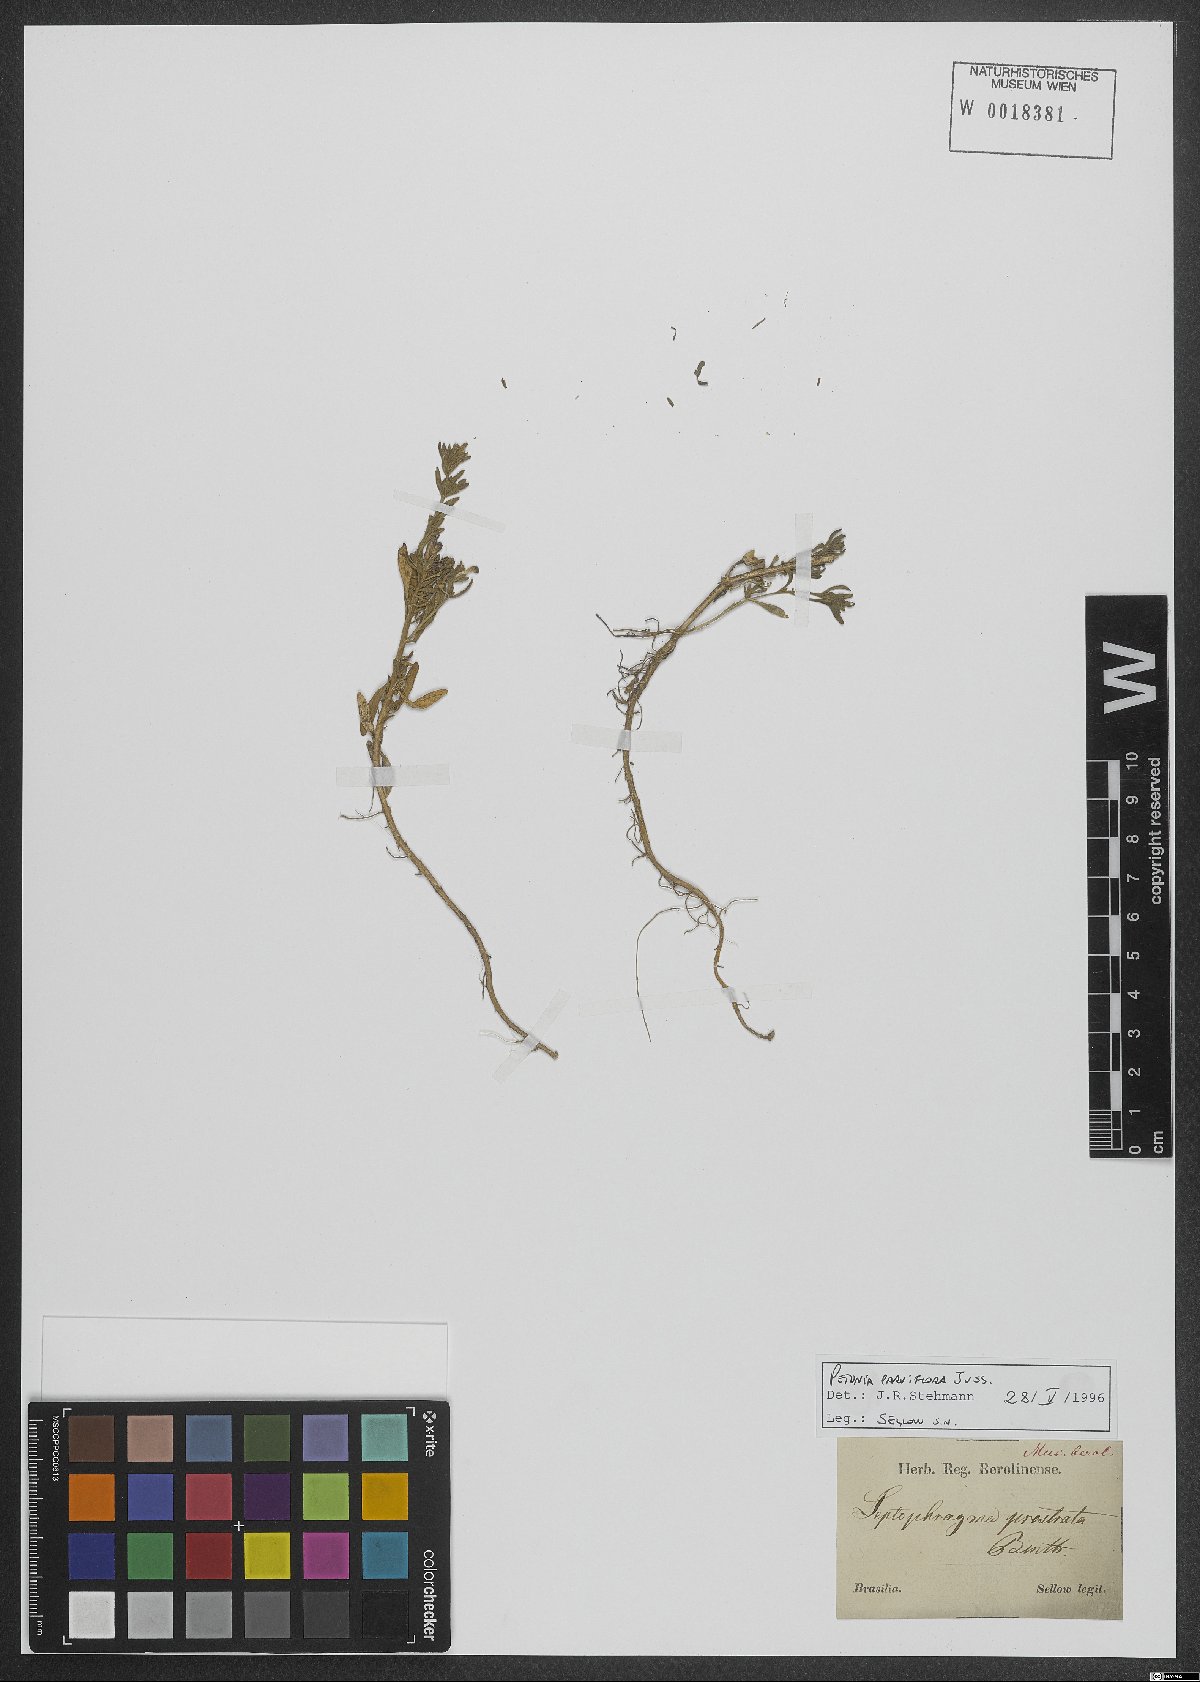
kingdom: Plantae
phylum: Tracheophyta
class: Magnoliopsida
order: Solanales
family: Solanaceae
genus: Calibrachoa
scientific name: Calibrachoa parviflora
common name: Seaside petunia
